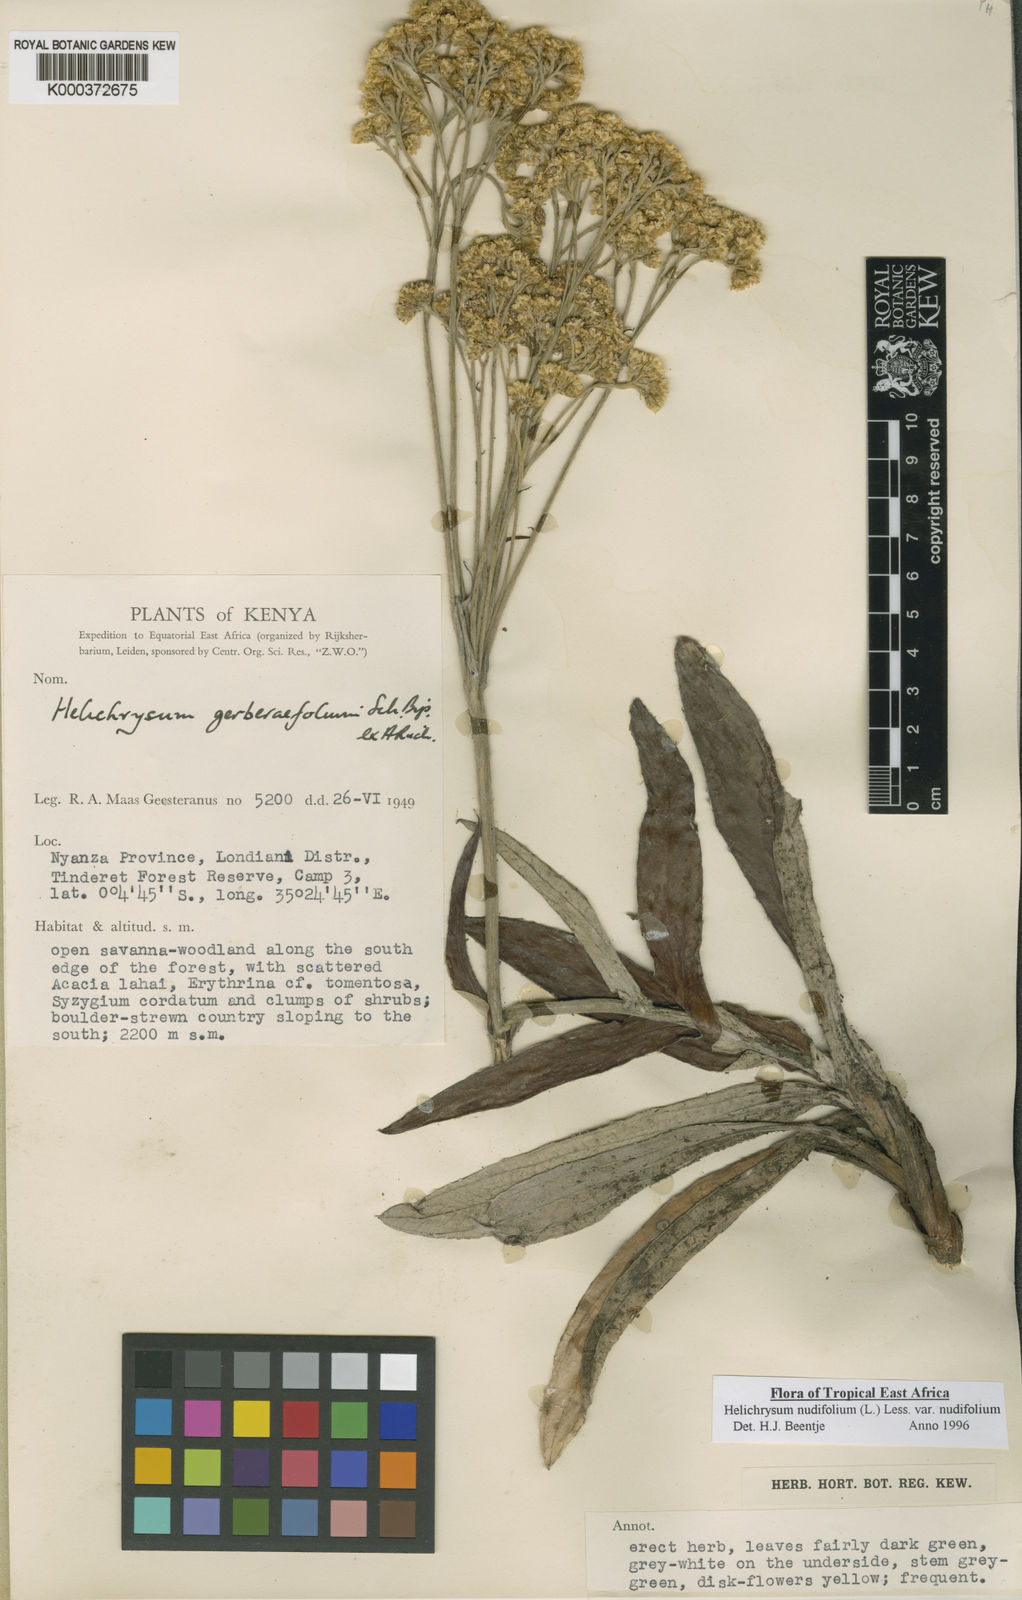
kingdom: Plantae
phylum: Tracheophyta
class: Magnoliopsida
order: Asterales
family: Asteraceae
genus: Helichrysum
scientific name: Helichrysum nudifolium
